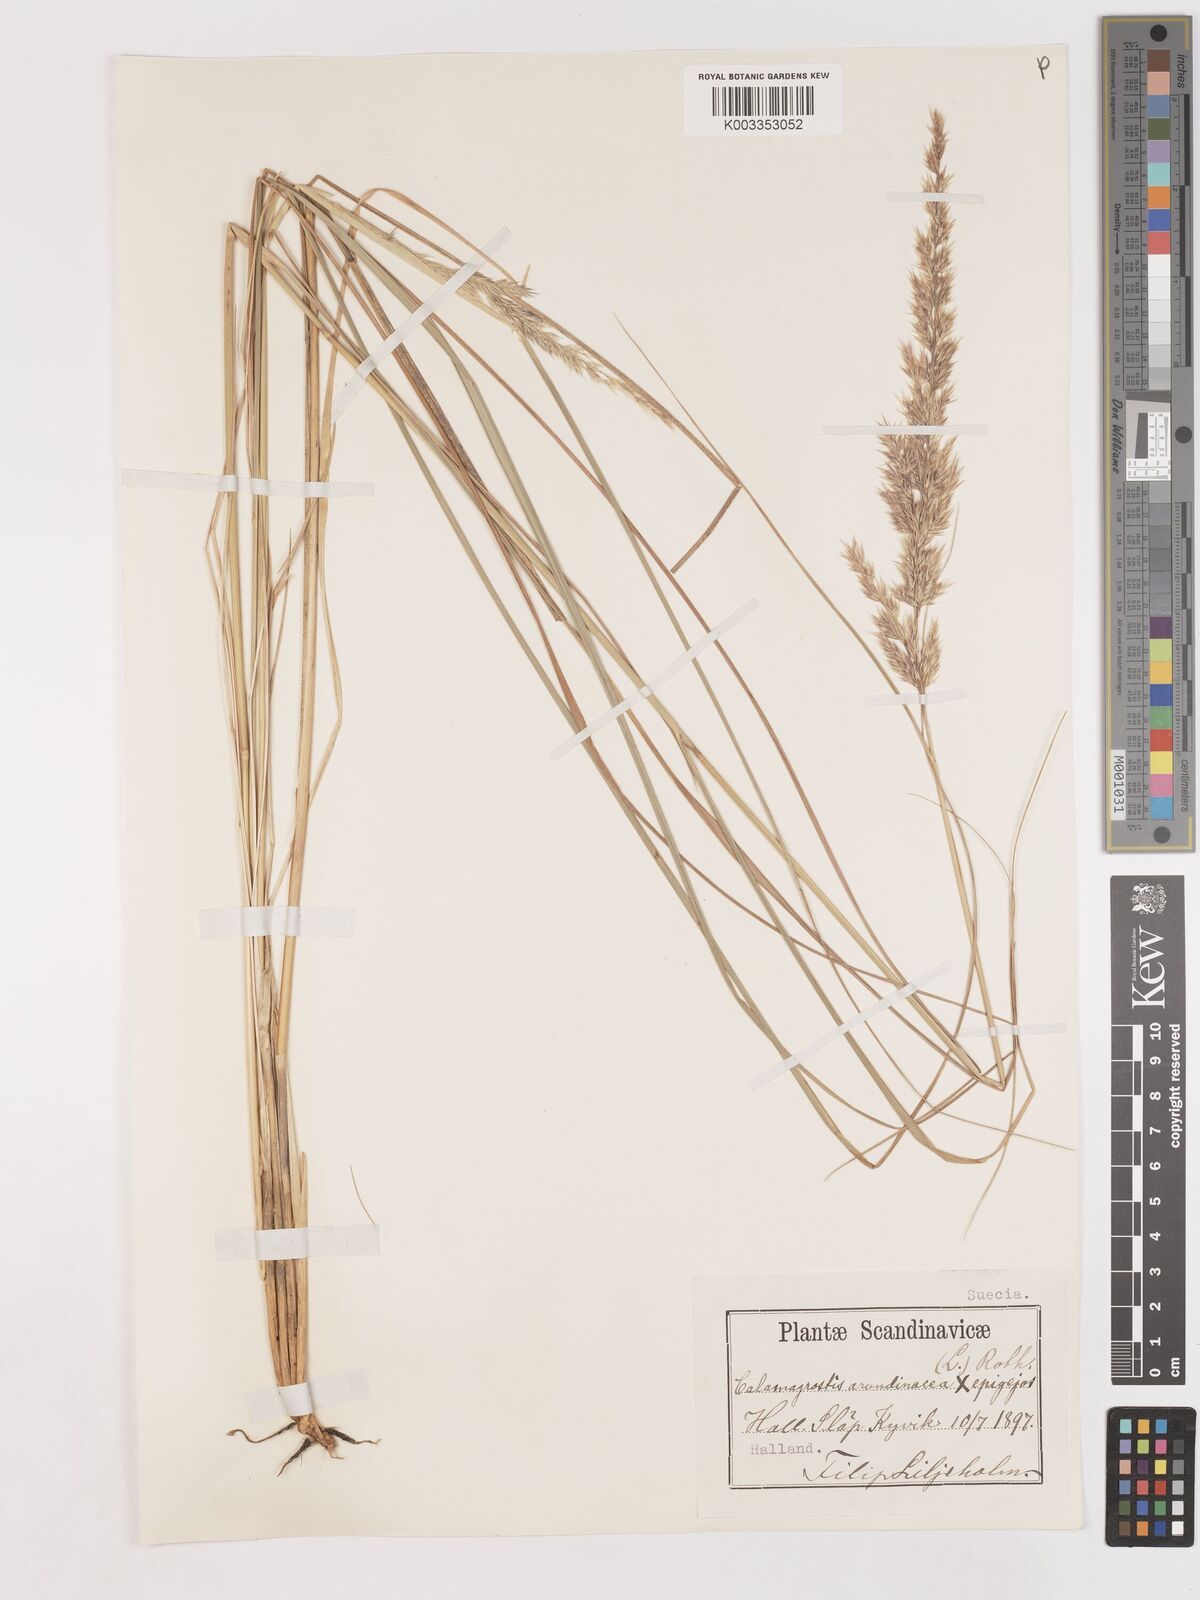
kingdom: Plantae
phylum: Tracheophyta
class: Liliopsida
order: Poales
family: Poaceae
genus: Calamagrostis
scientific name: Calamagrostis epigejos
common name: Wood small-reed
